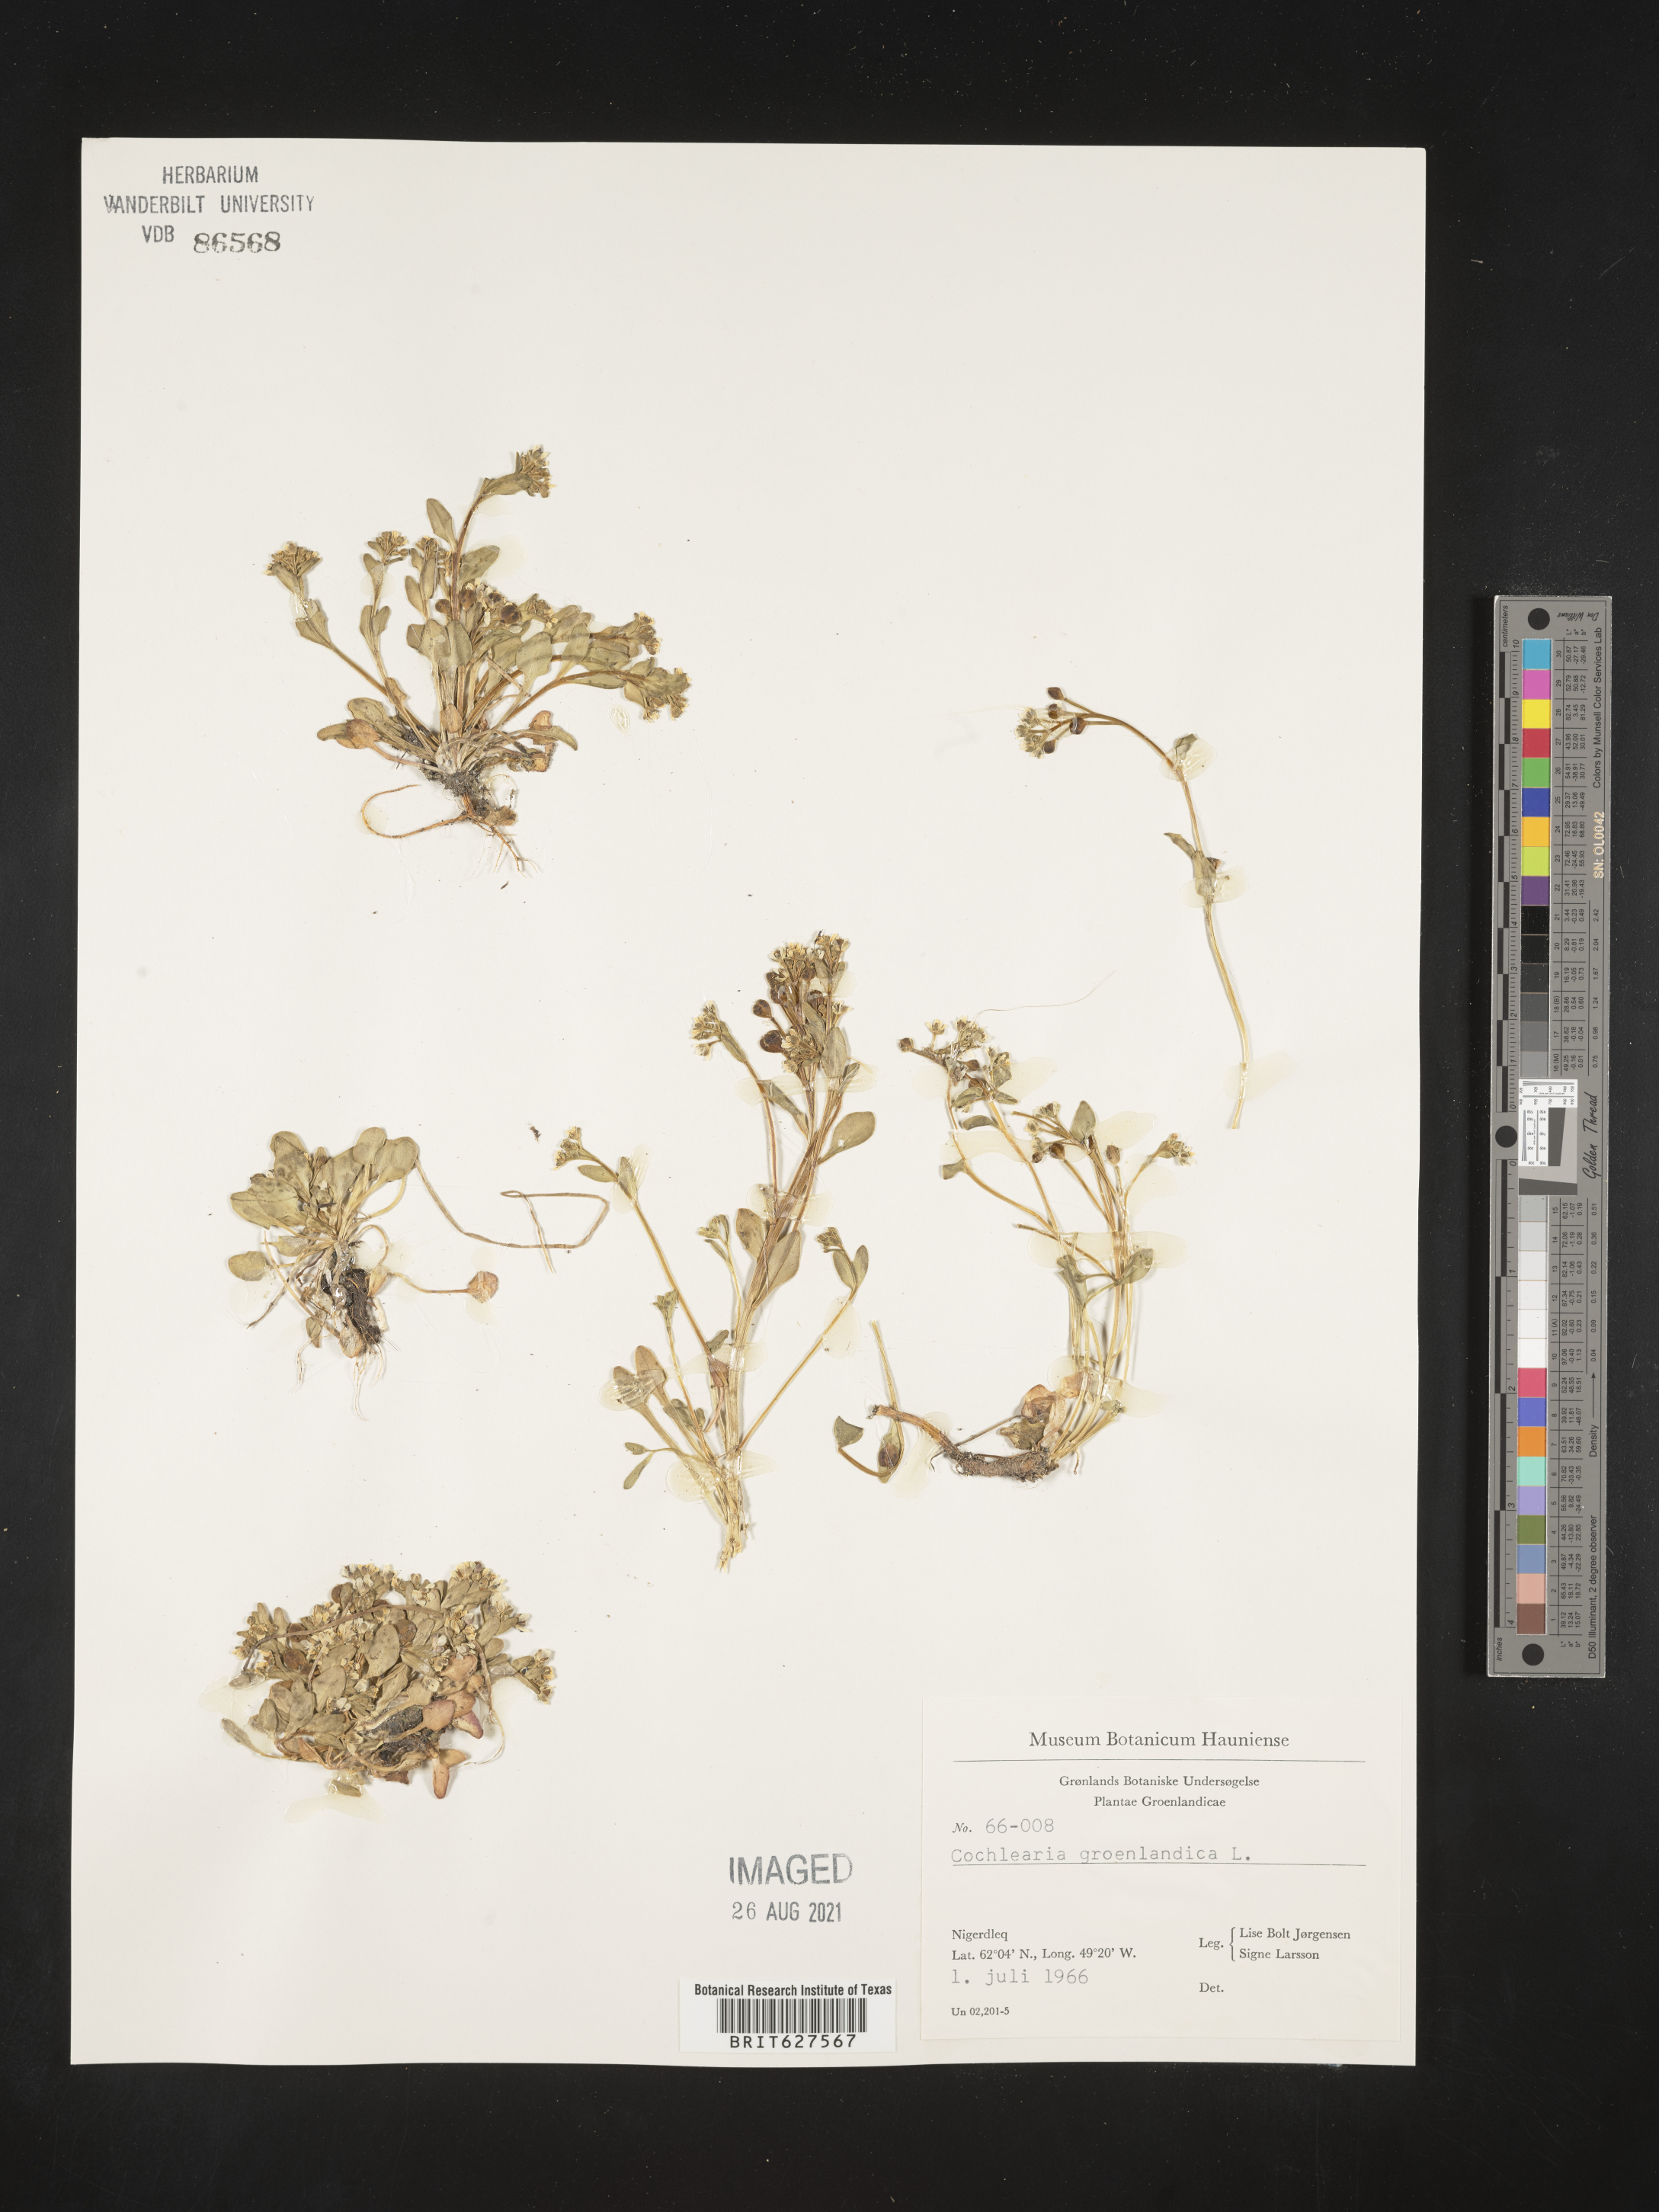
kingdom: Plantae
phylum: Tracheophyta
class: Magnoliopsida
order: Brassicales
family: Brassicaceae
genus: Cochlearia
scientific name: Cochlearia groenlandica
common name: Danish scurvygrass
